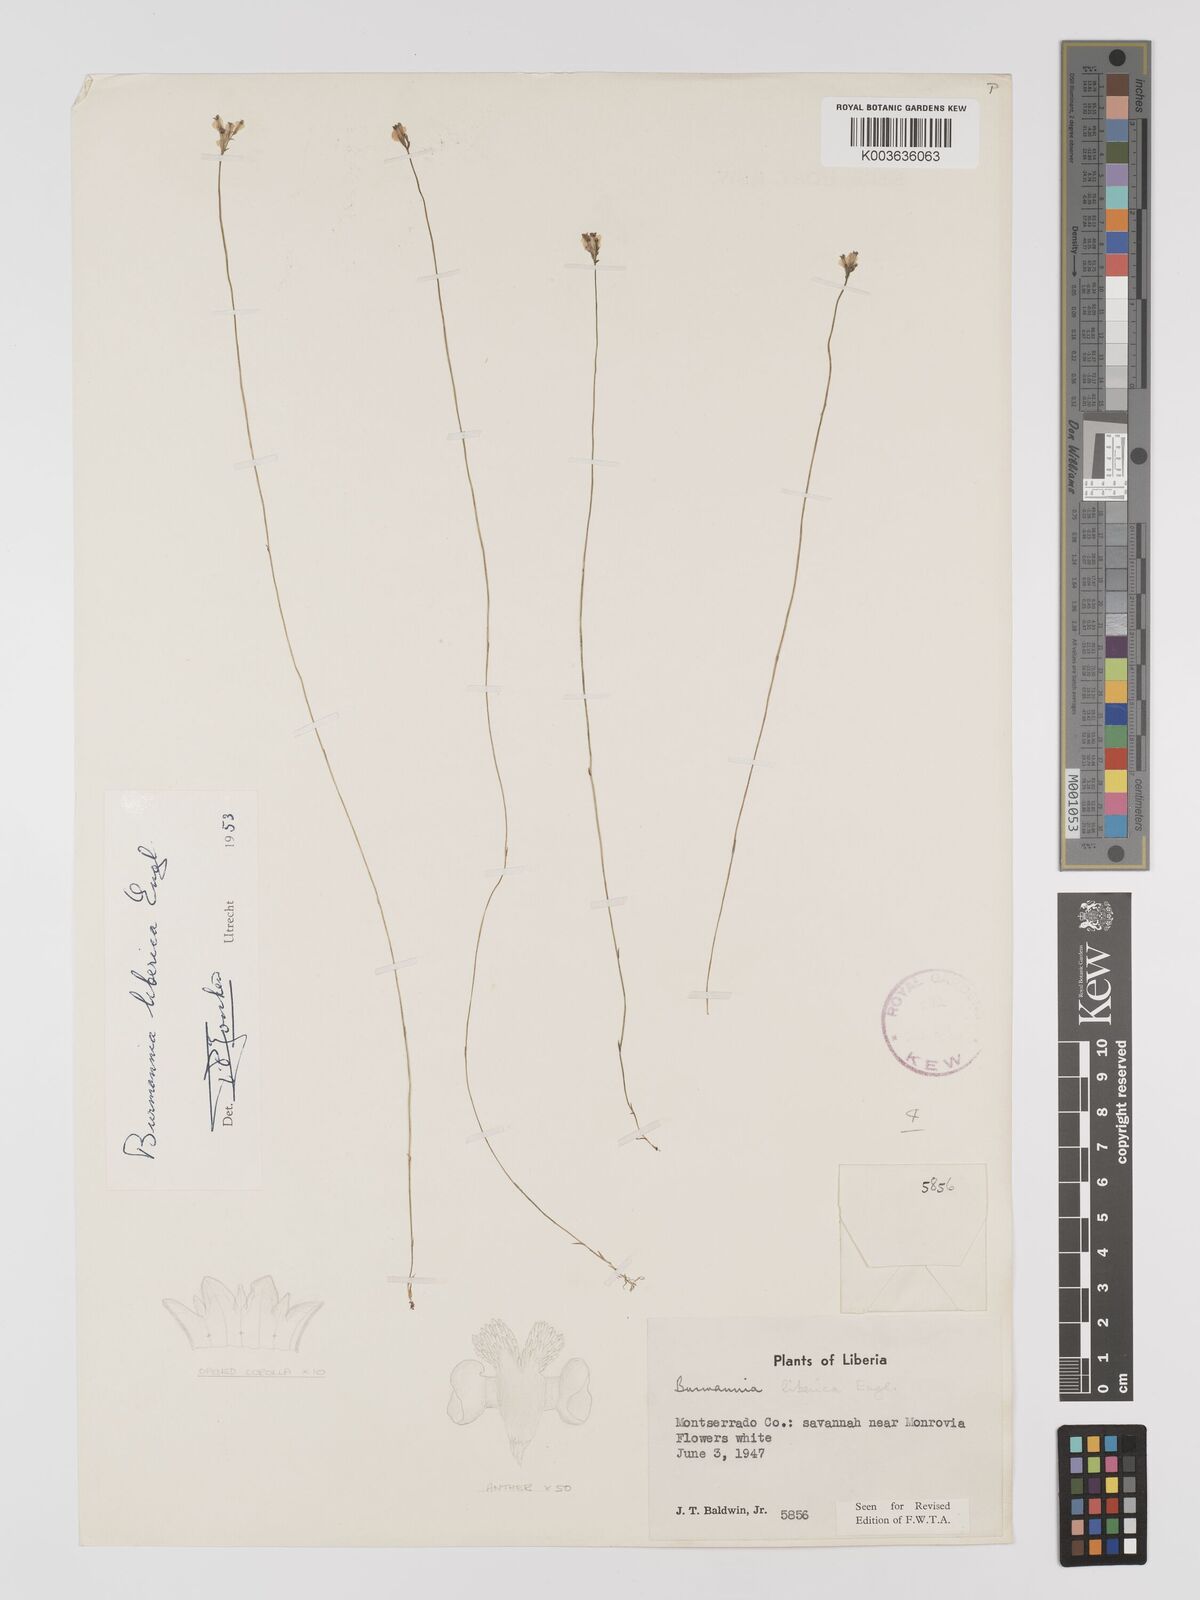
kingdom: Plantae
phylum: Tracheophyta
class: Liliopsida
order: Dioscoreales
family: Burmanniaceae
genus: Burmannia
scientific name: Burmannia madagascariensis
